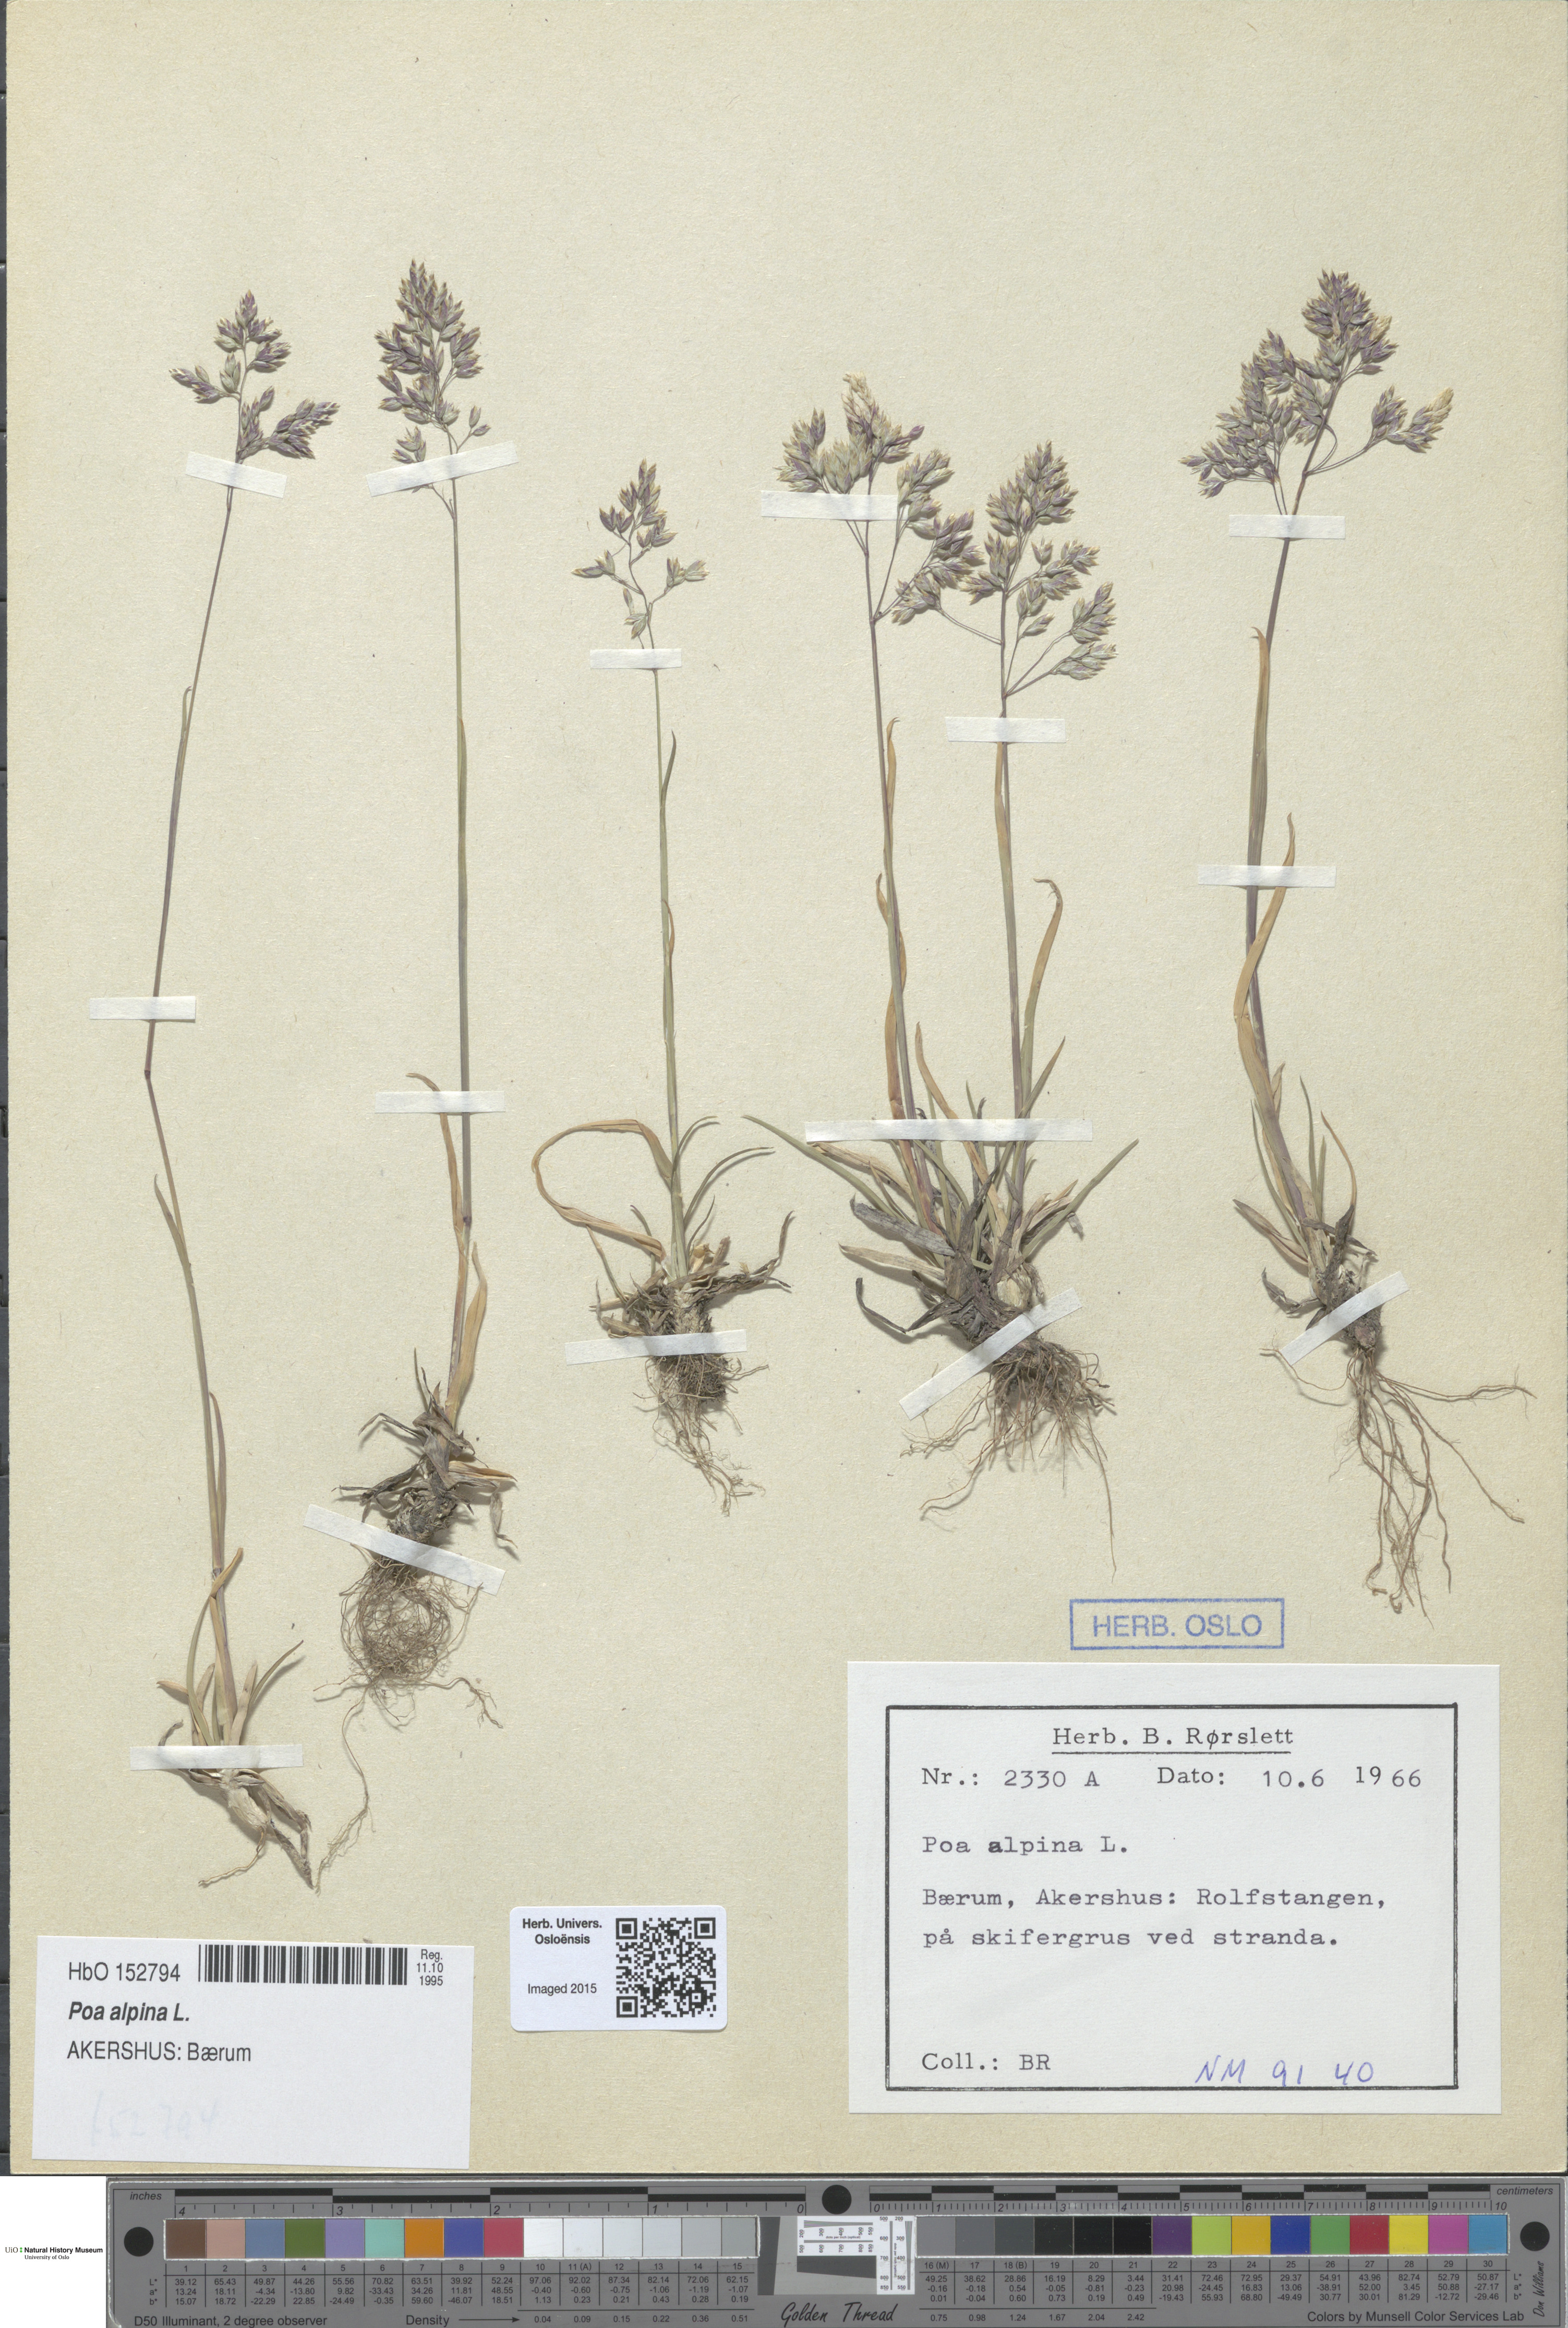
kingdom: Plantae
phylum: Tracheophyta
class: Liliopsida
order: Poales
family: Poaceae
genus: Poa
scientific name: Poa alpina
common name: Alpine bluegrass
